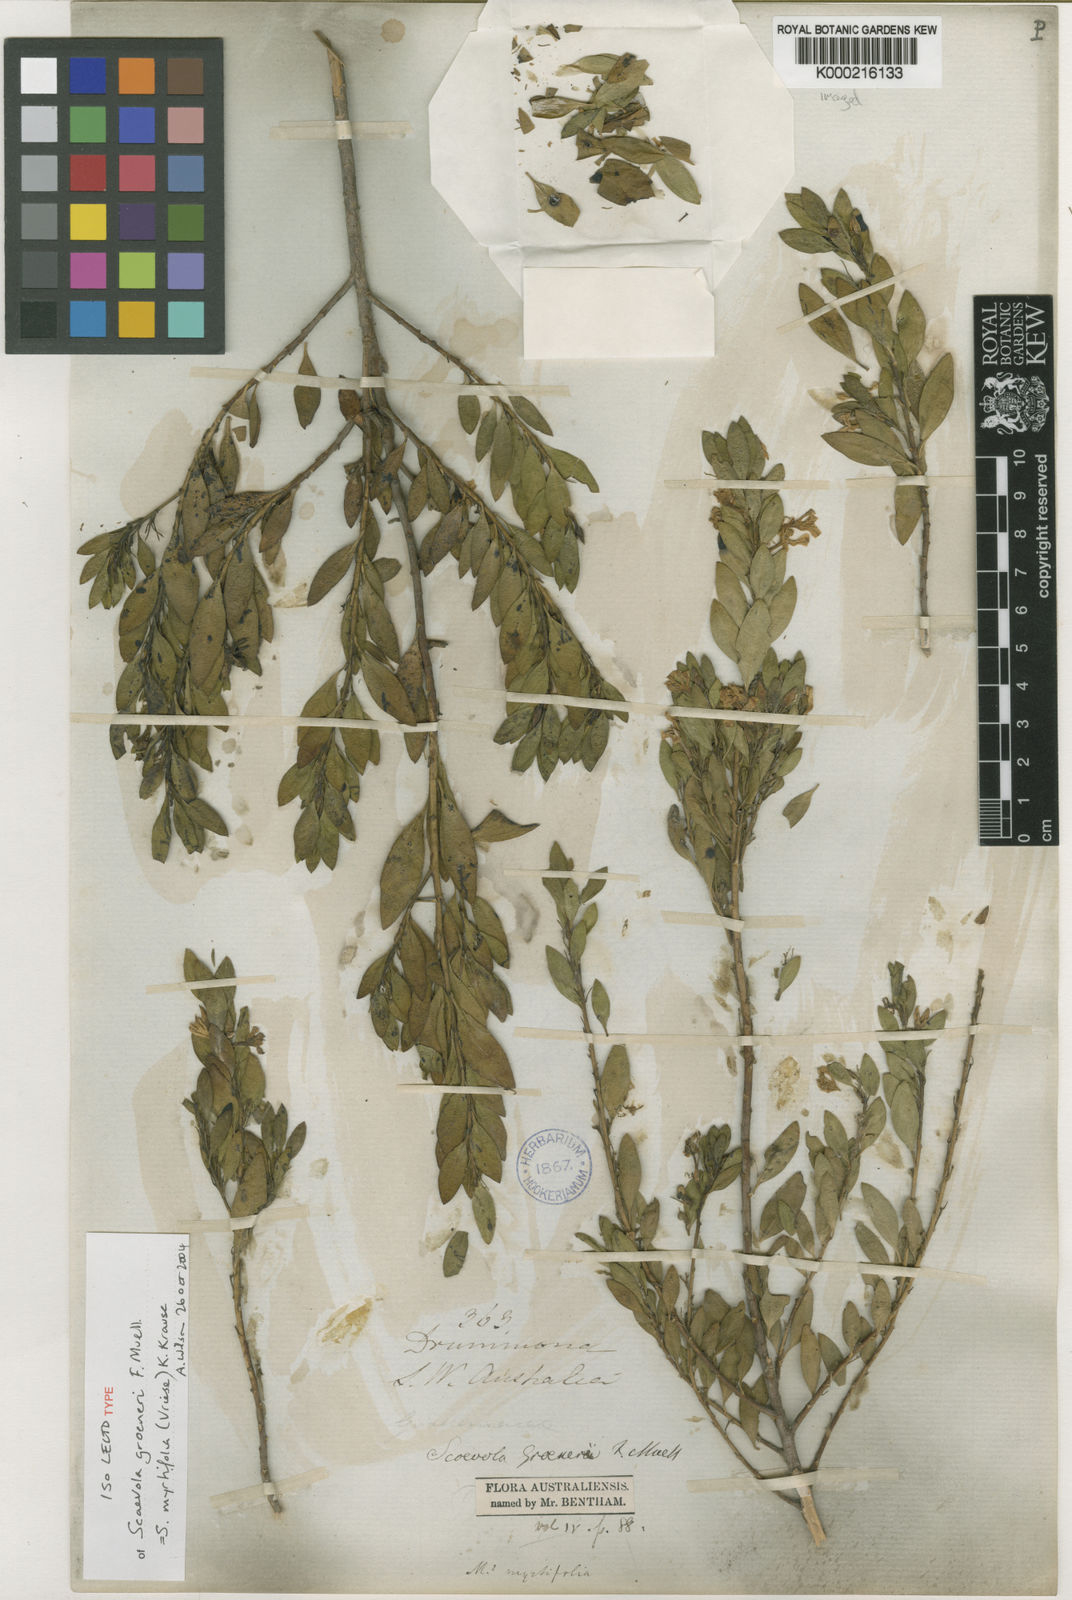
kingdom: Plantae
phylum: Tracheophyta
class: Magnoliopsida
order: Asterales
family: Goodeniaceae
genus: Scaevola
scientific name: Scaevola myrtifolia
